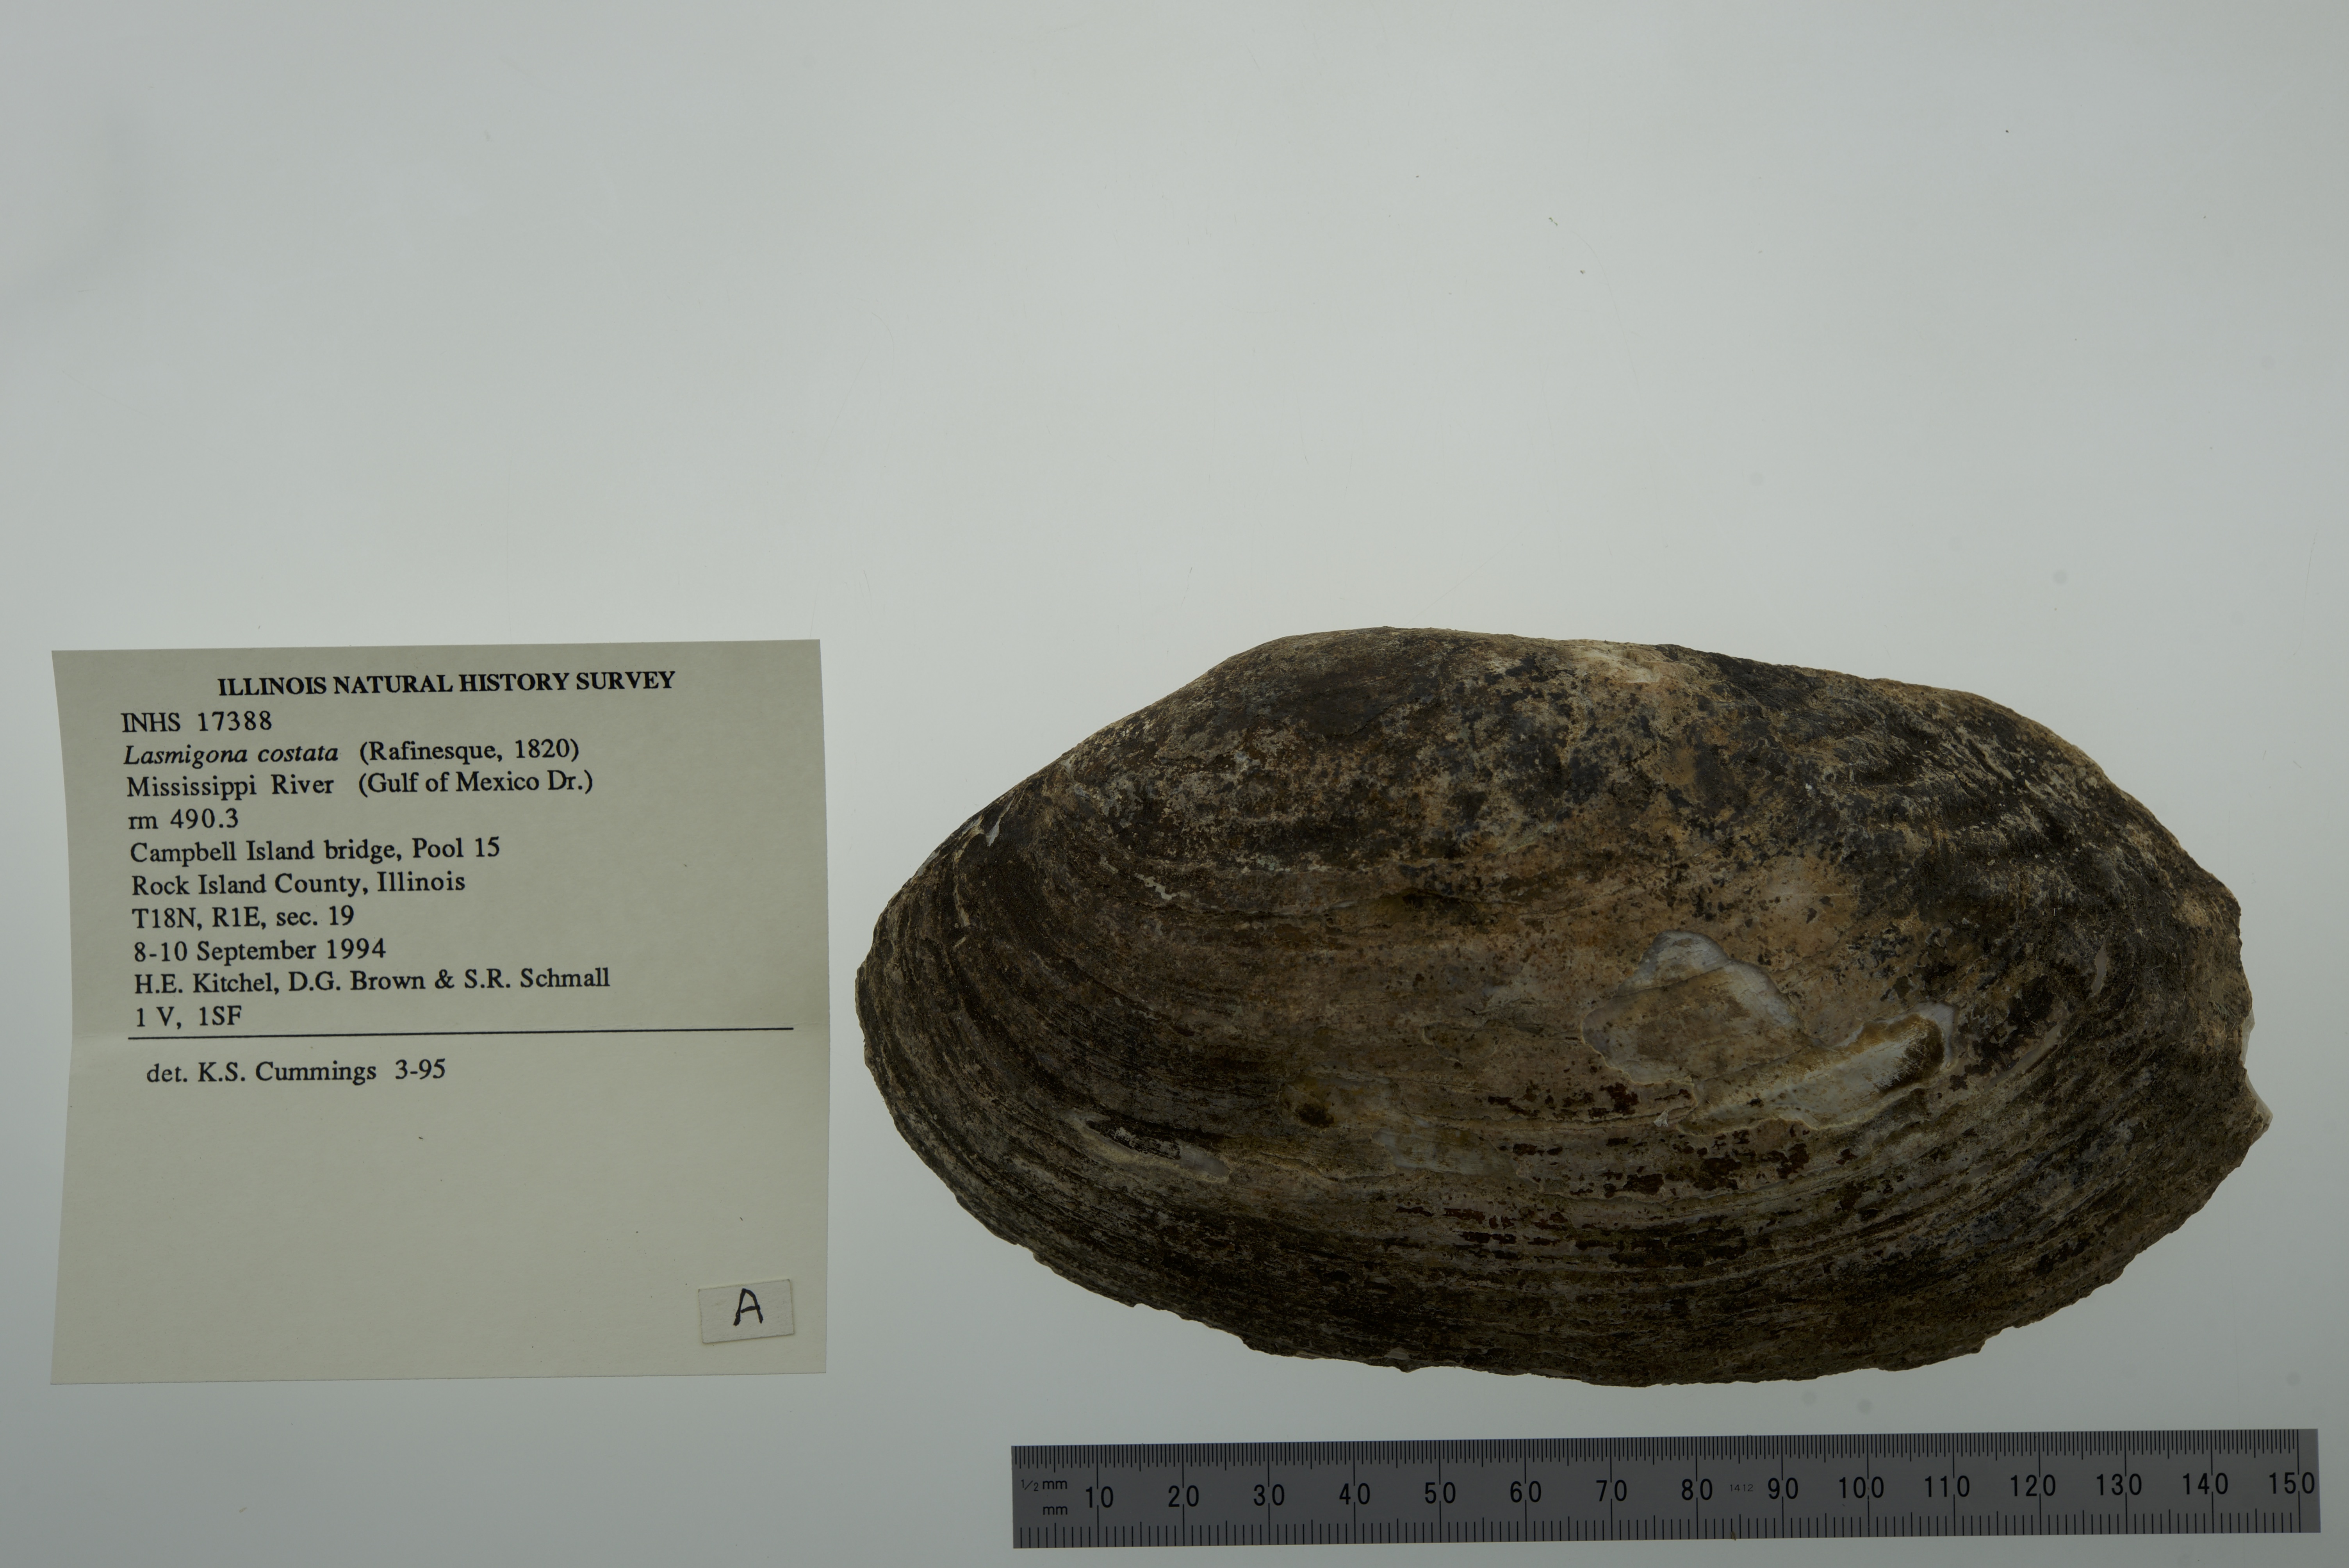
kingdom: Animalia
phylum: Mollusca
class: Bivalvia
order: Unionida
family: Unionidae
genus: Lasmigona
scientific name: Lasmigona costata
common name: Flutedshell
